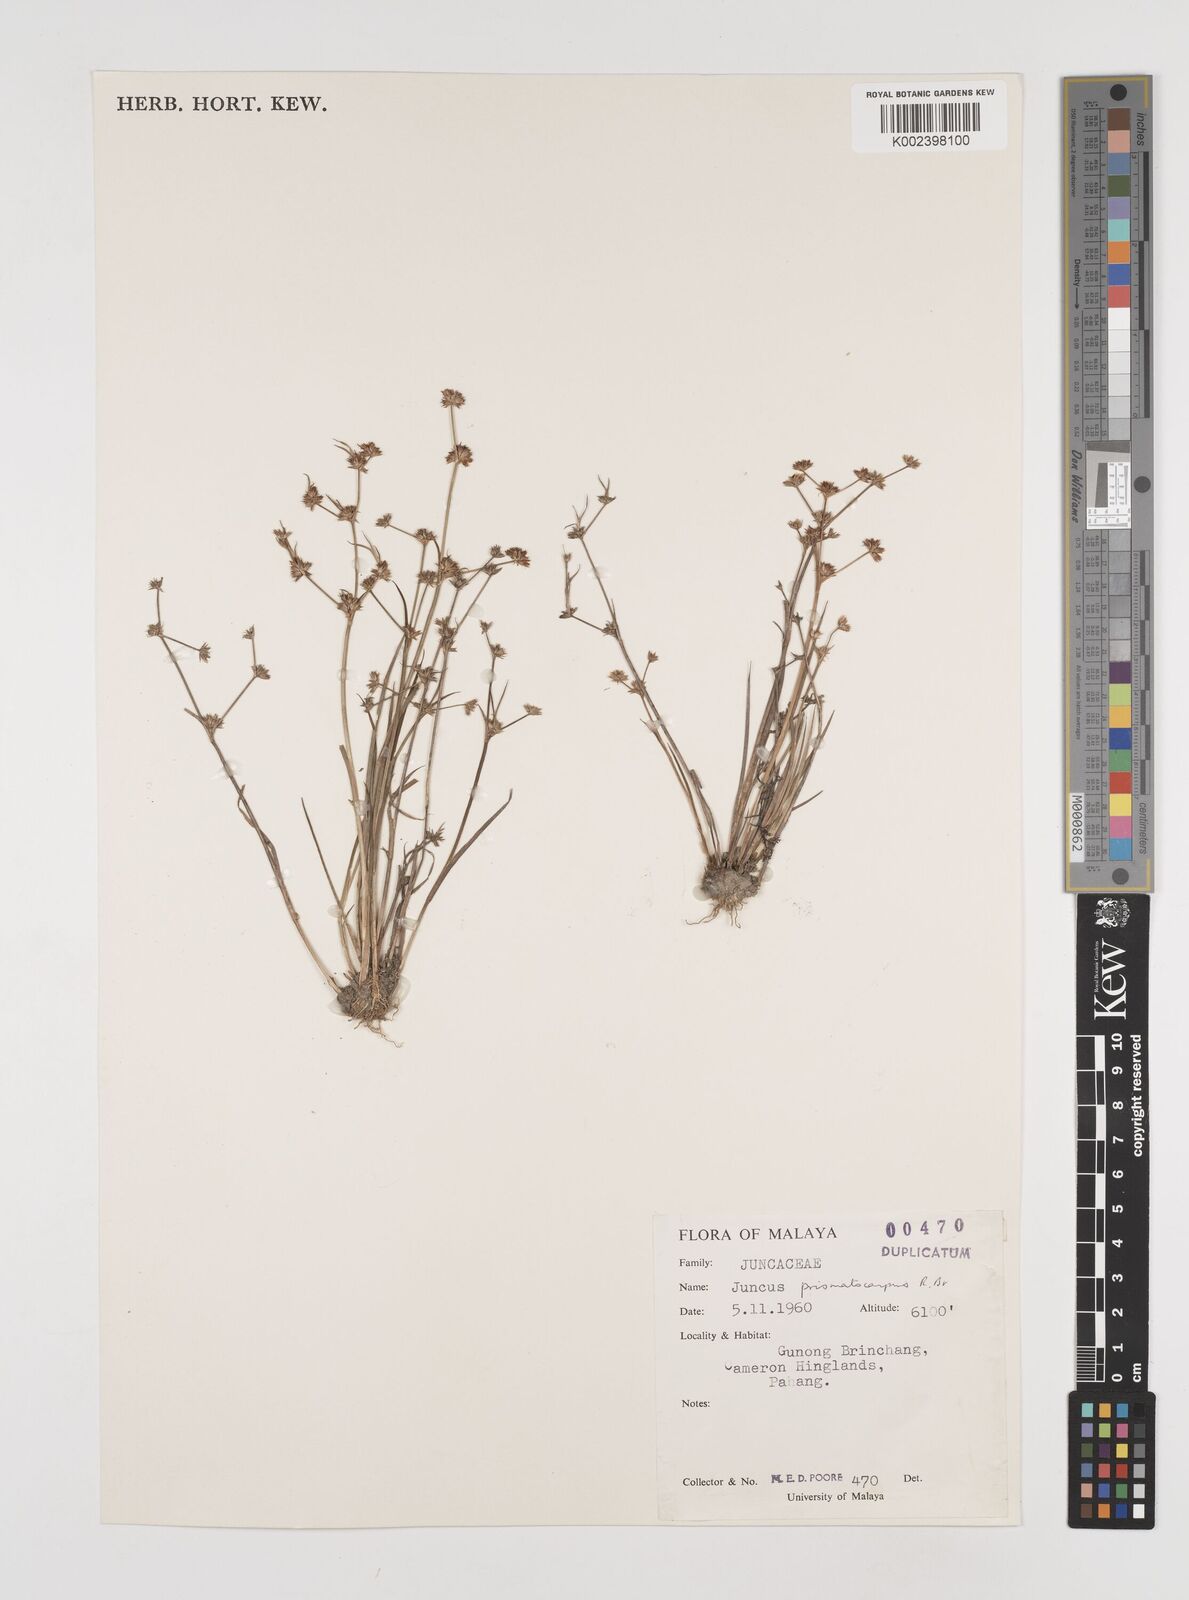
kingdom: Plantae
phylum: Tracheophyta
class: Liliopsida
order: Poales
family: Juncaceae
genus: Juncus
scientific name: Juncus prismatocarpus
